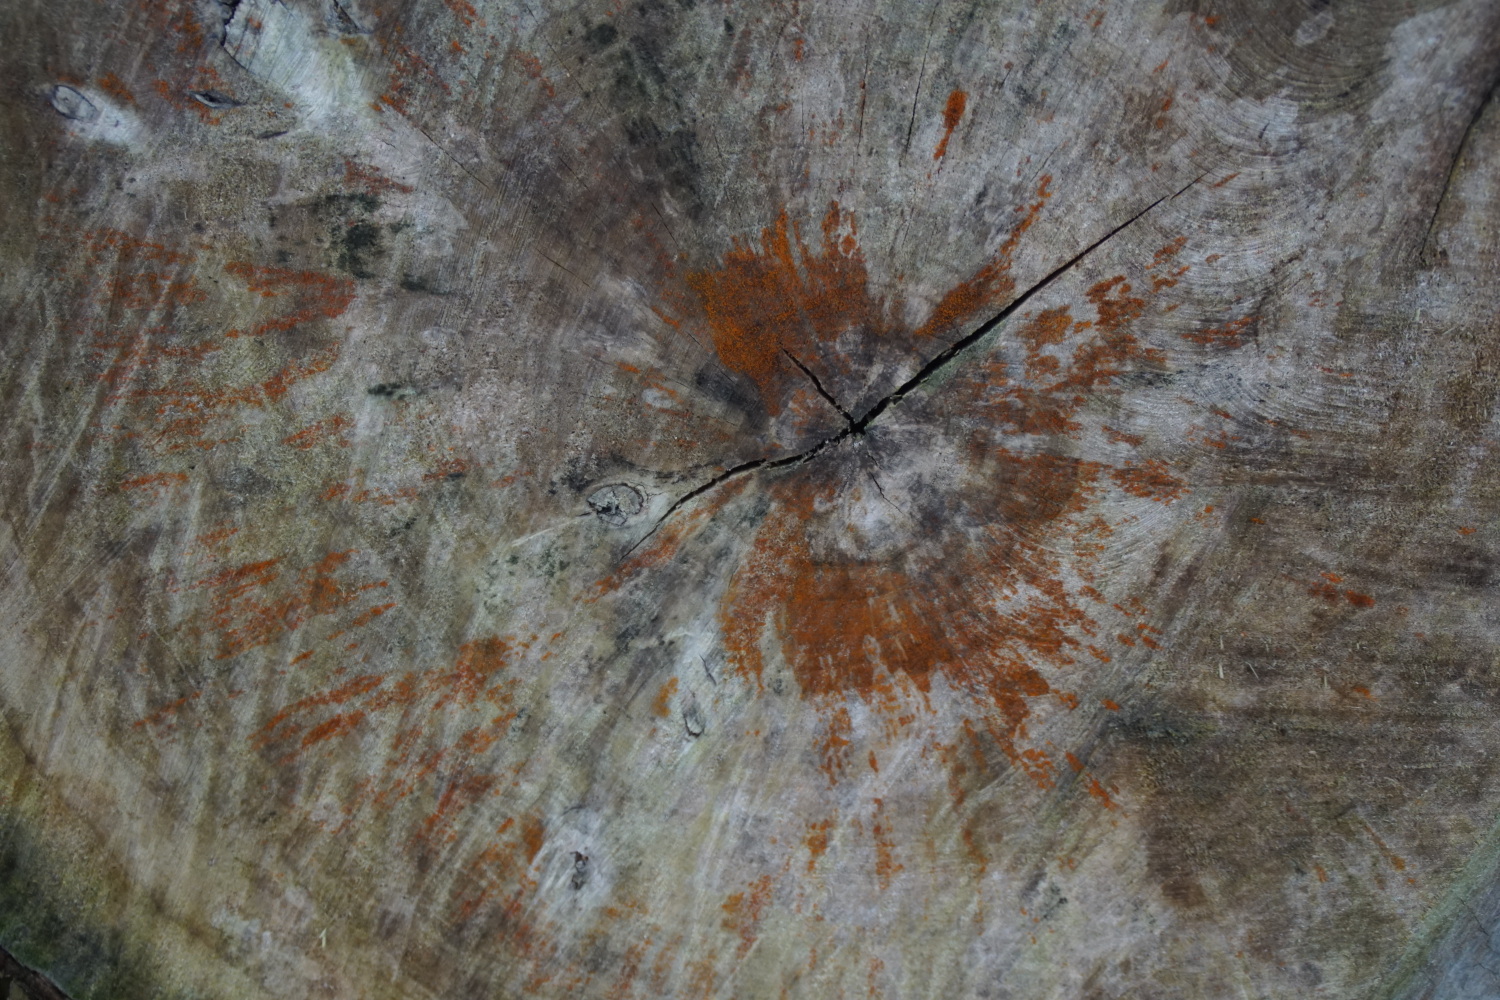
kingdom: Fungi
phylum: Ascomycota
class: Sordariomycetes
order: Hypocreales
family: Nectriaceae
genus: Hydropisphaera
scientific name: Hydropisphaera peziza
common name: skålformet gyldenkerne
